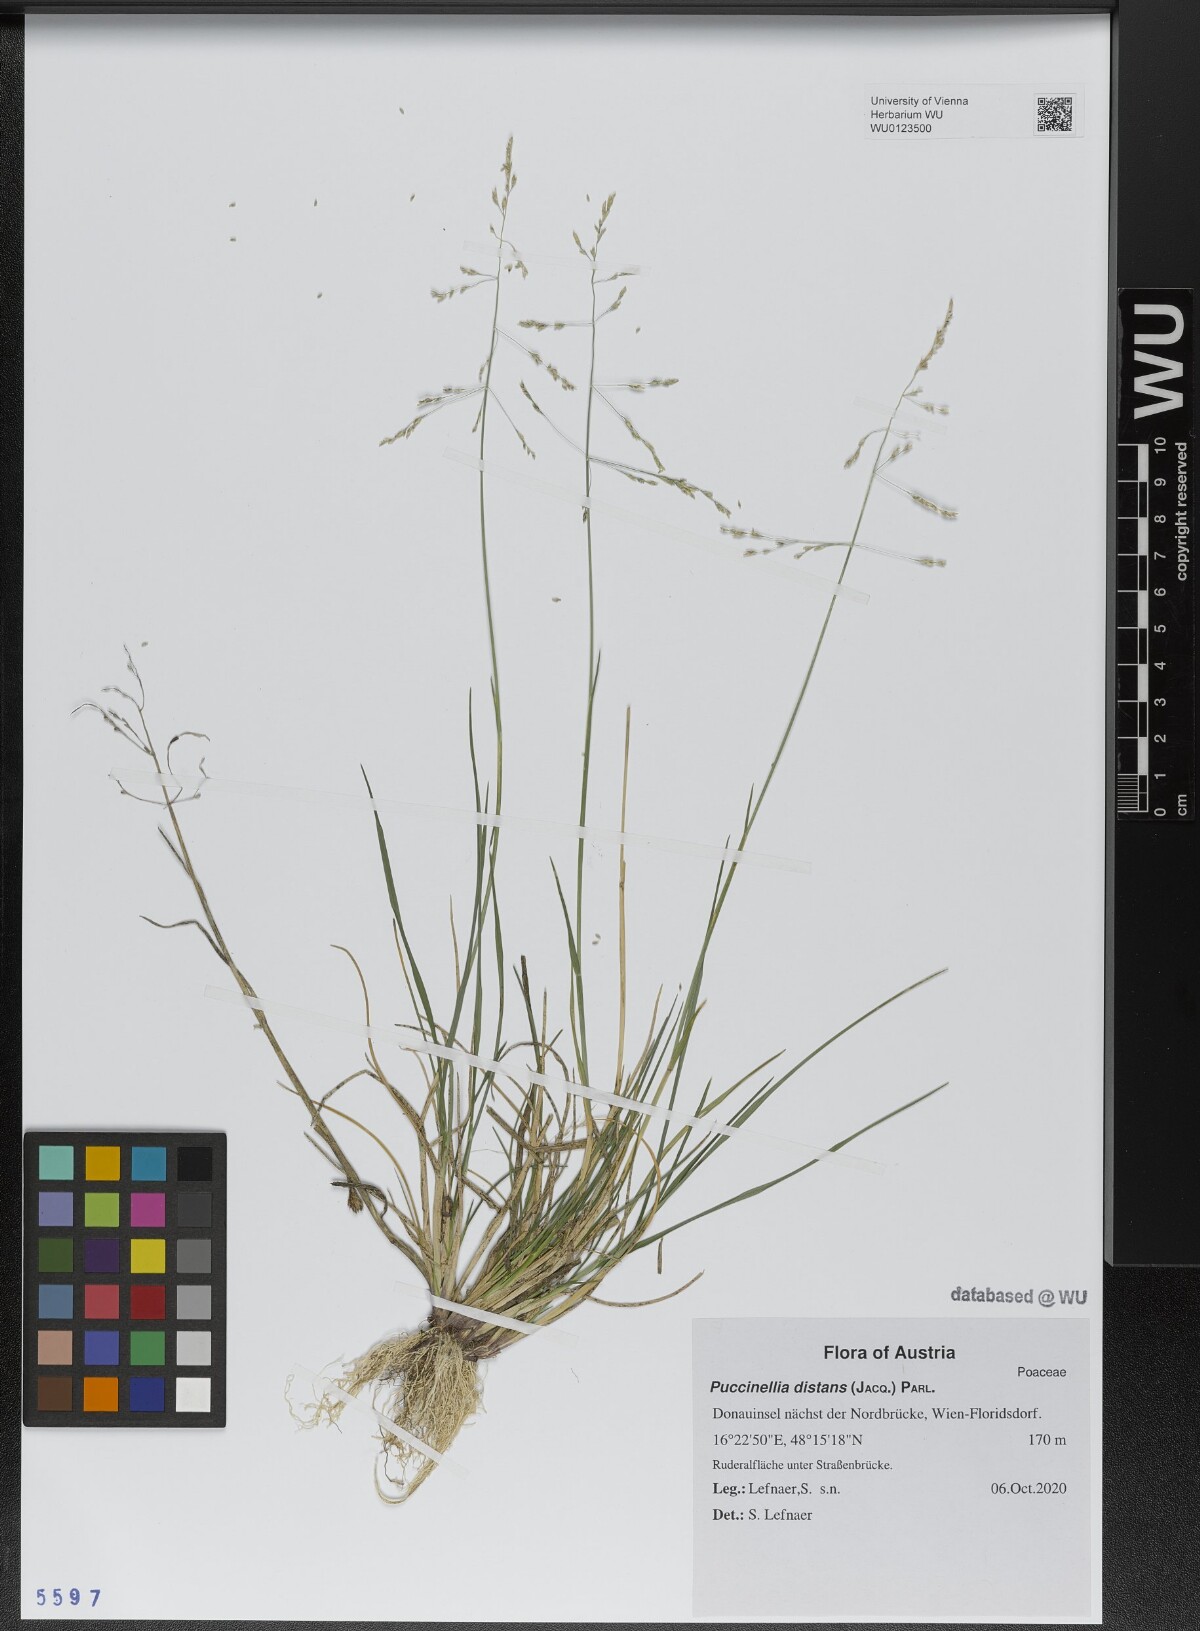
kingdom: Plantae
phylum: Tracheophyta
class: Liliopsida
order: Poales
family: Poaceae
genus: Puccinellia
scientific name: Puccinellia distans
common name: Weeping alkaligrass
